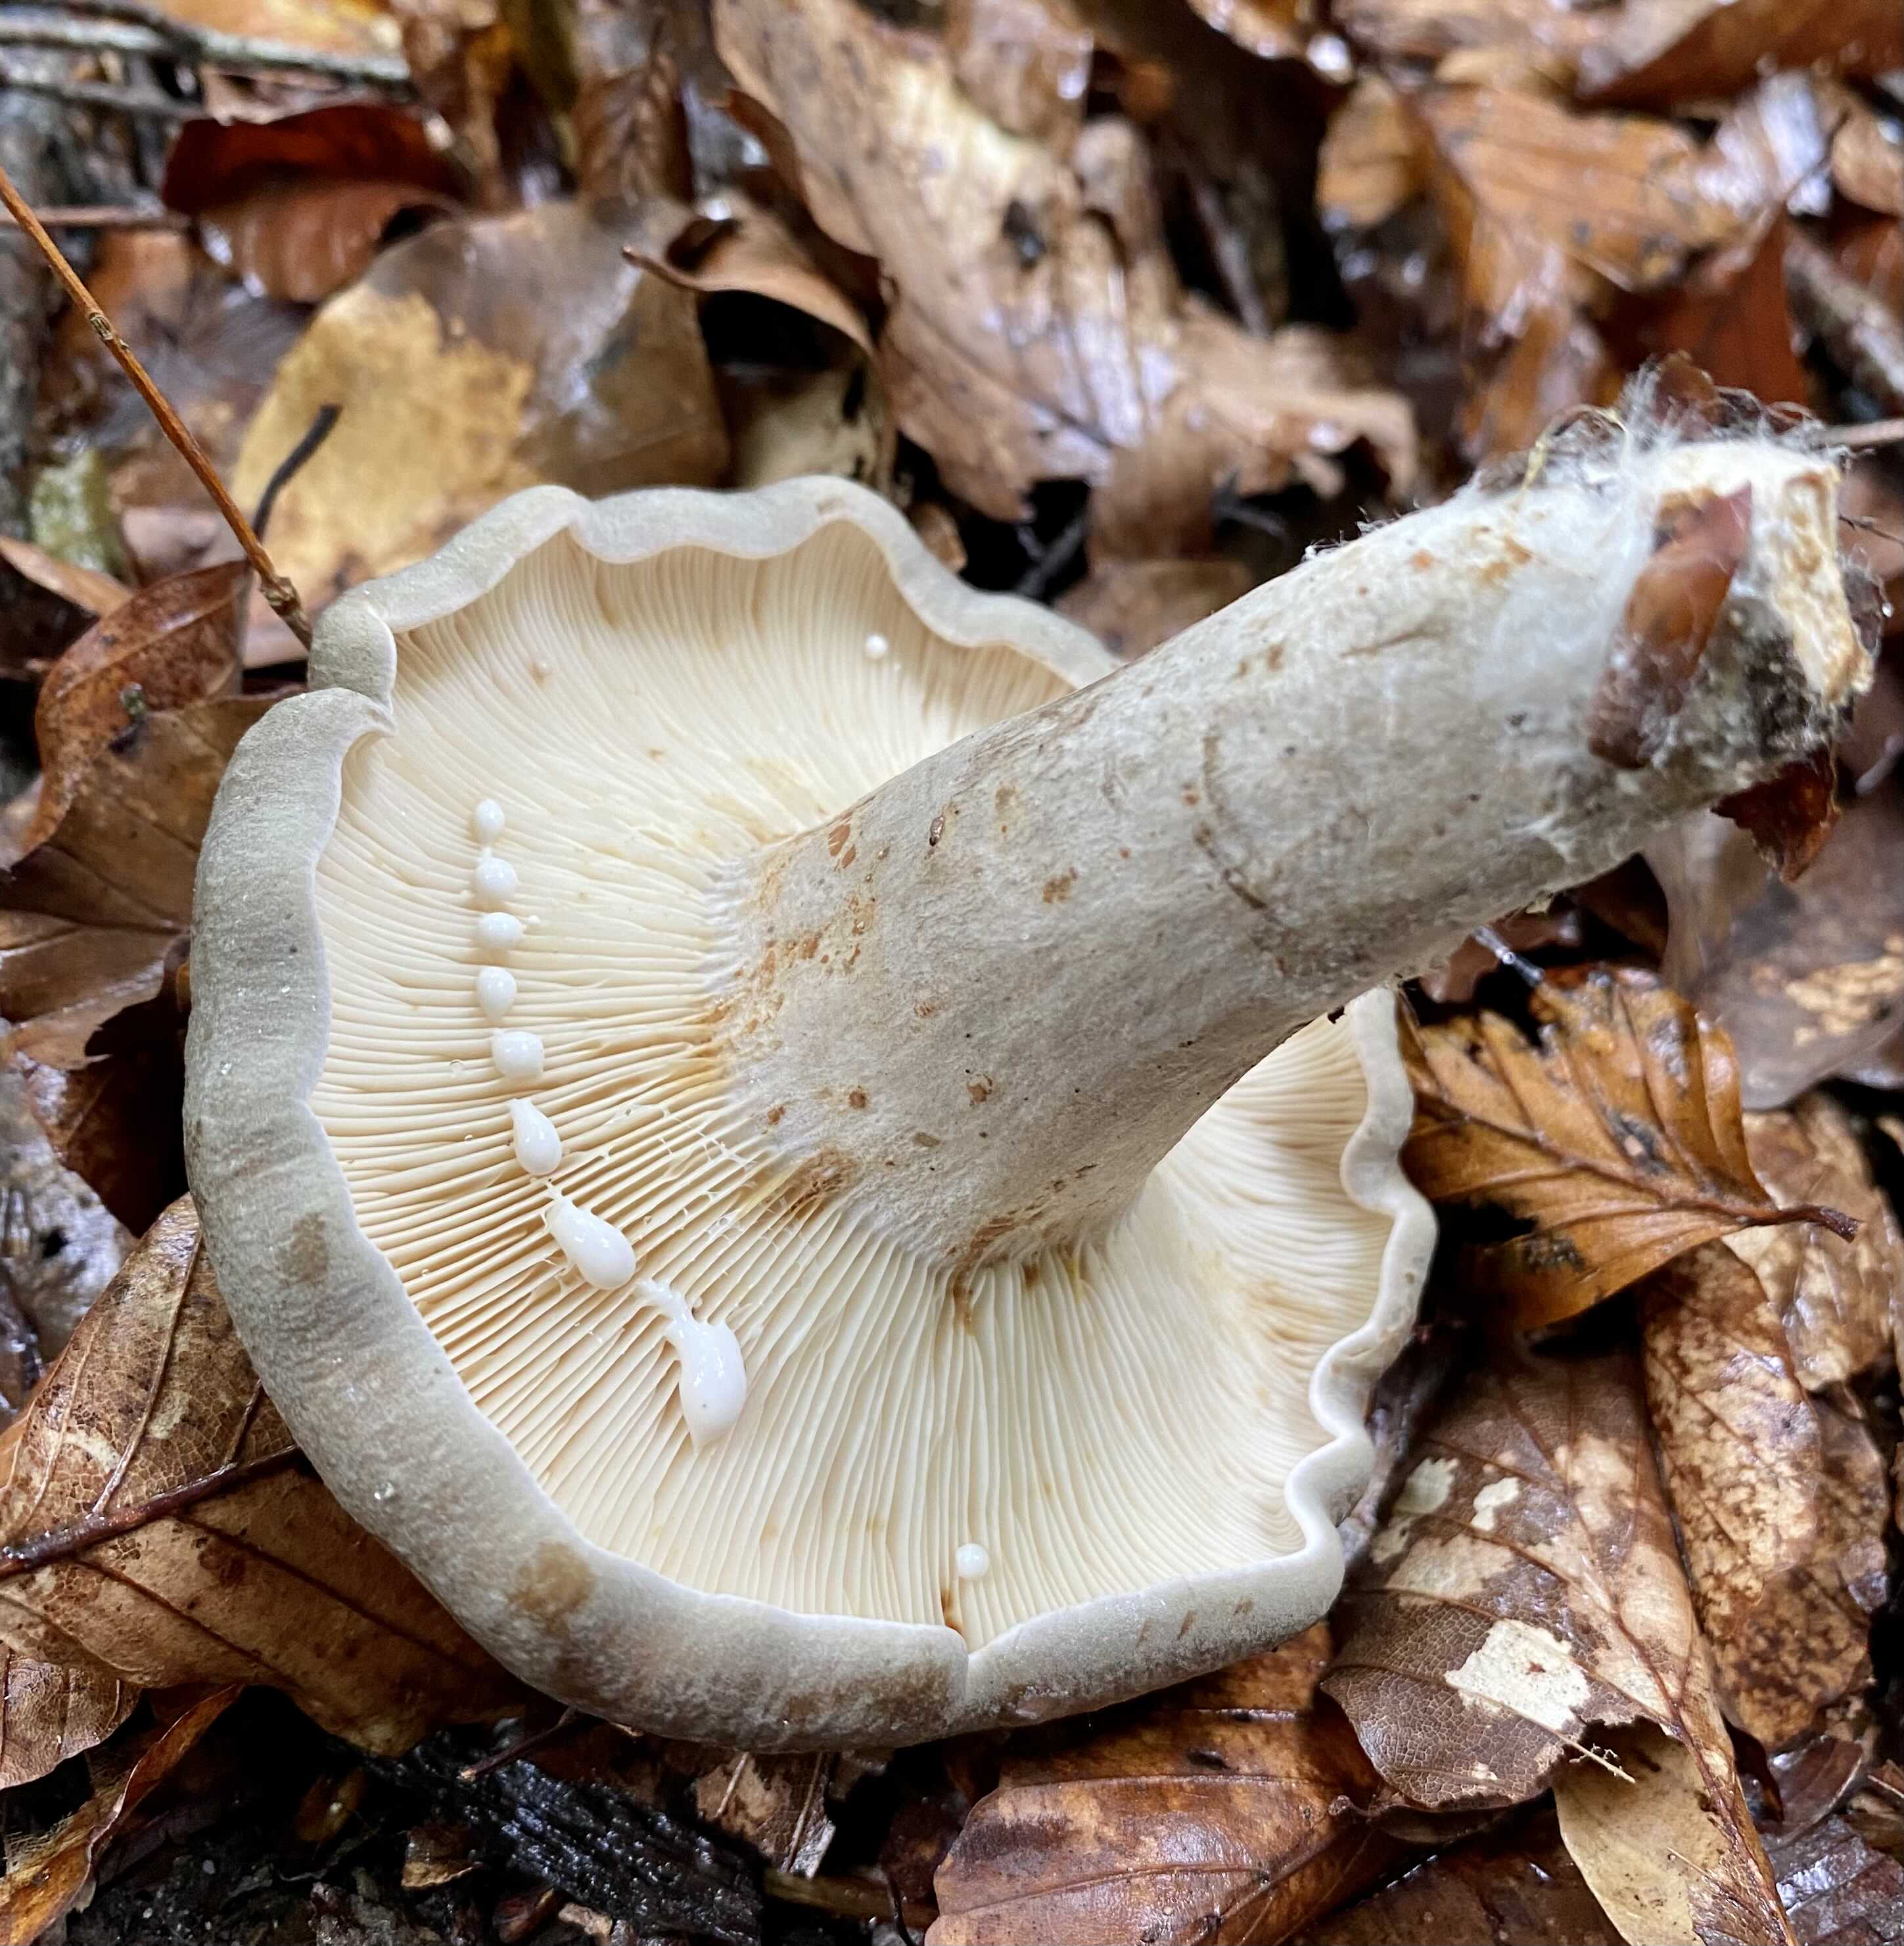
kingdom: Fungi
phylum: Basidiomycota
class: Agaricomycetes
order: Russulales
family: Russulaceae
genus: Lactarius
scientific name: Lactarius fluens
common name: lysrandet mælkehat
